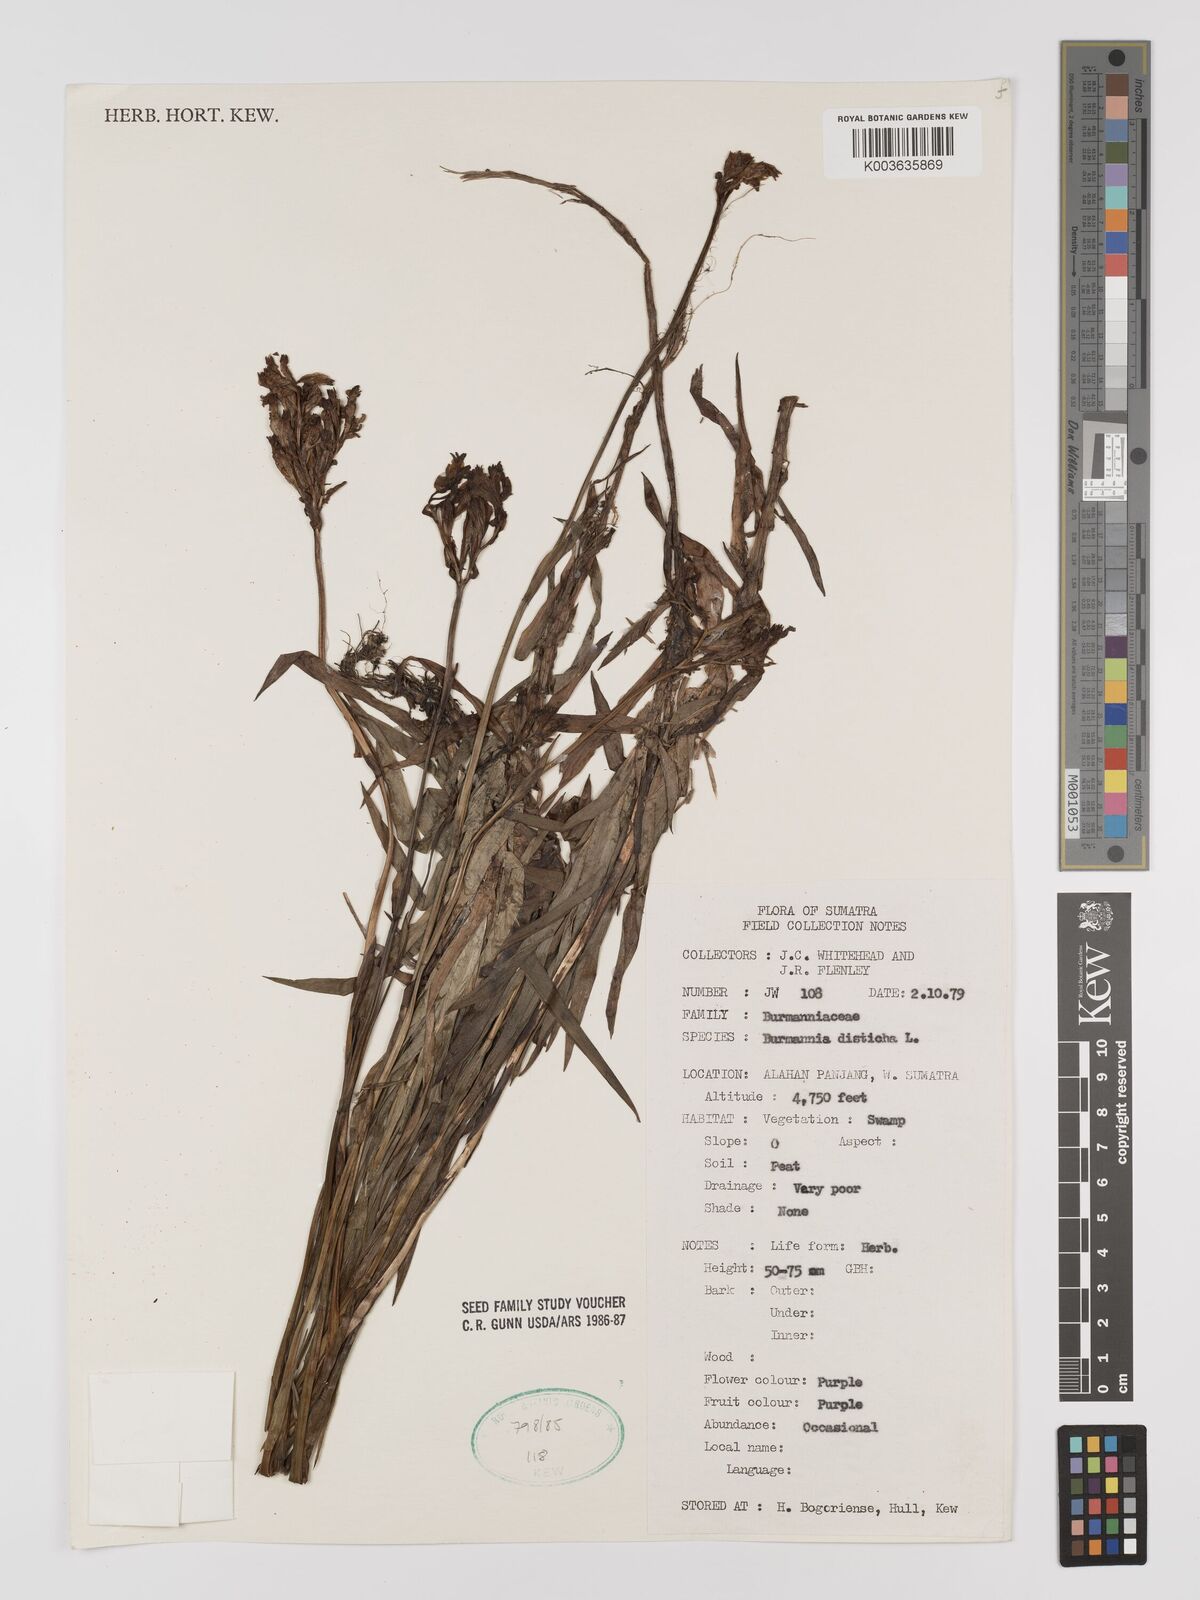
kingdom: Plantae
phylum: Tracheophyta
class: Liliopsida
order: Dioscoreales
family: Burmanniaceae
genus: Burmannia
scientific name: Burmannia disticha
